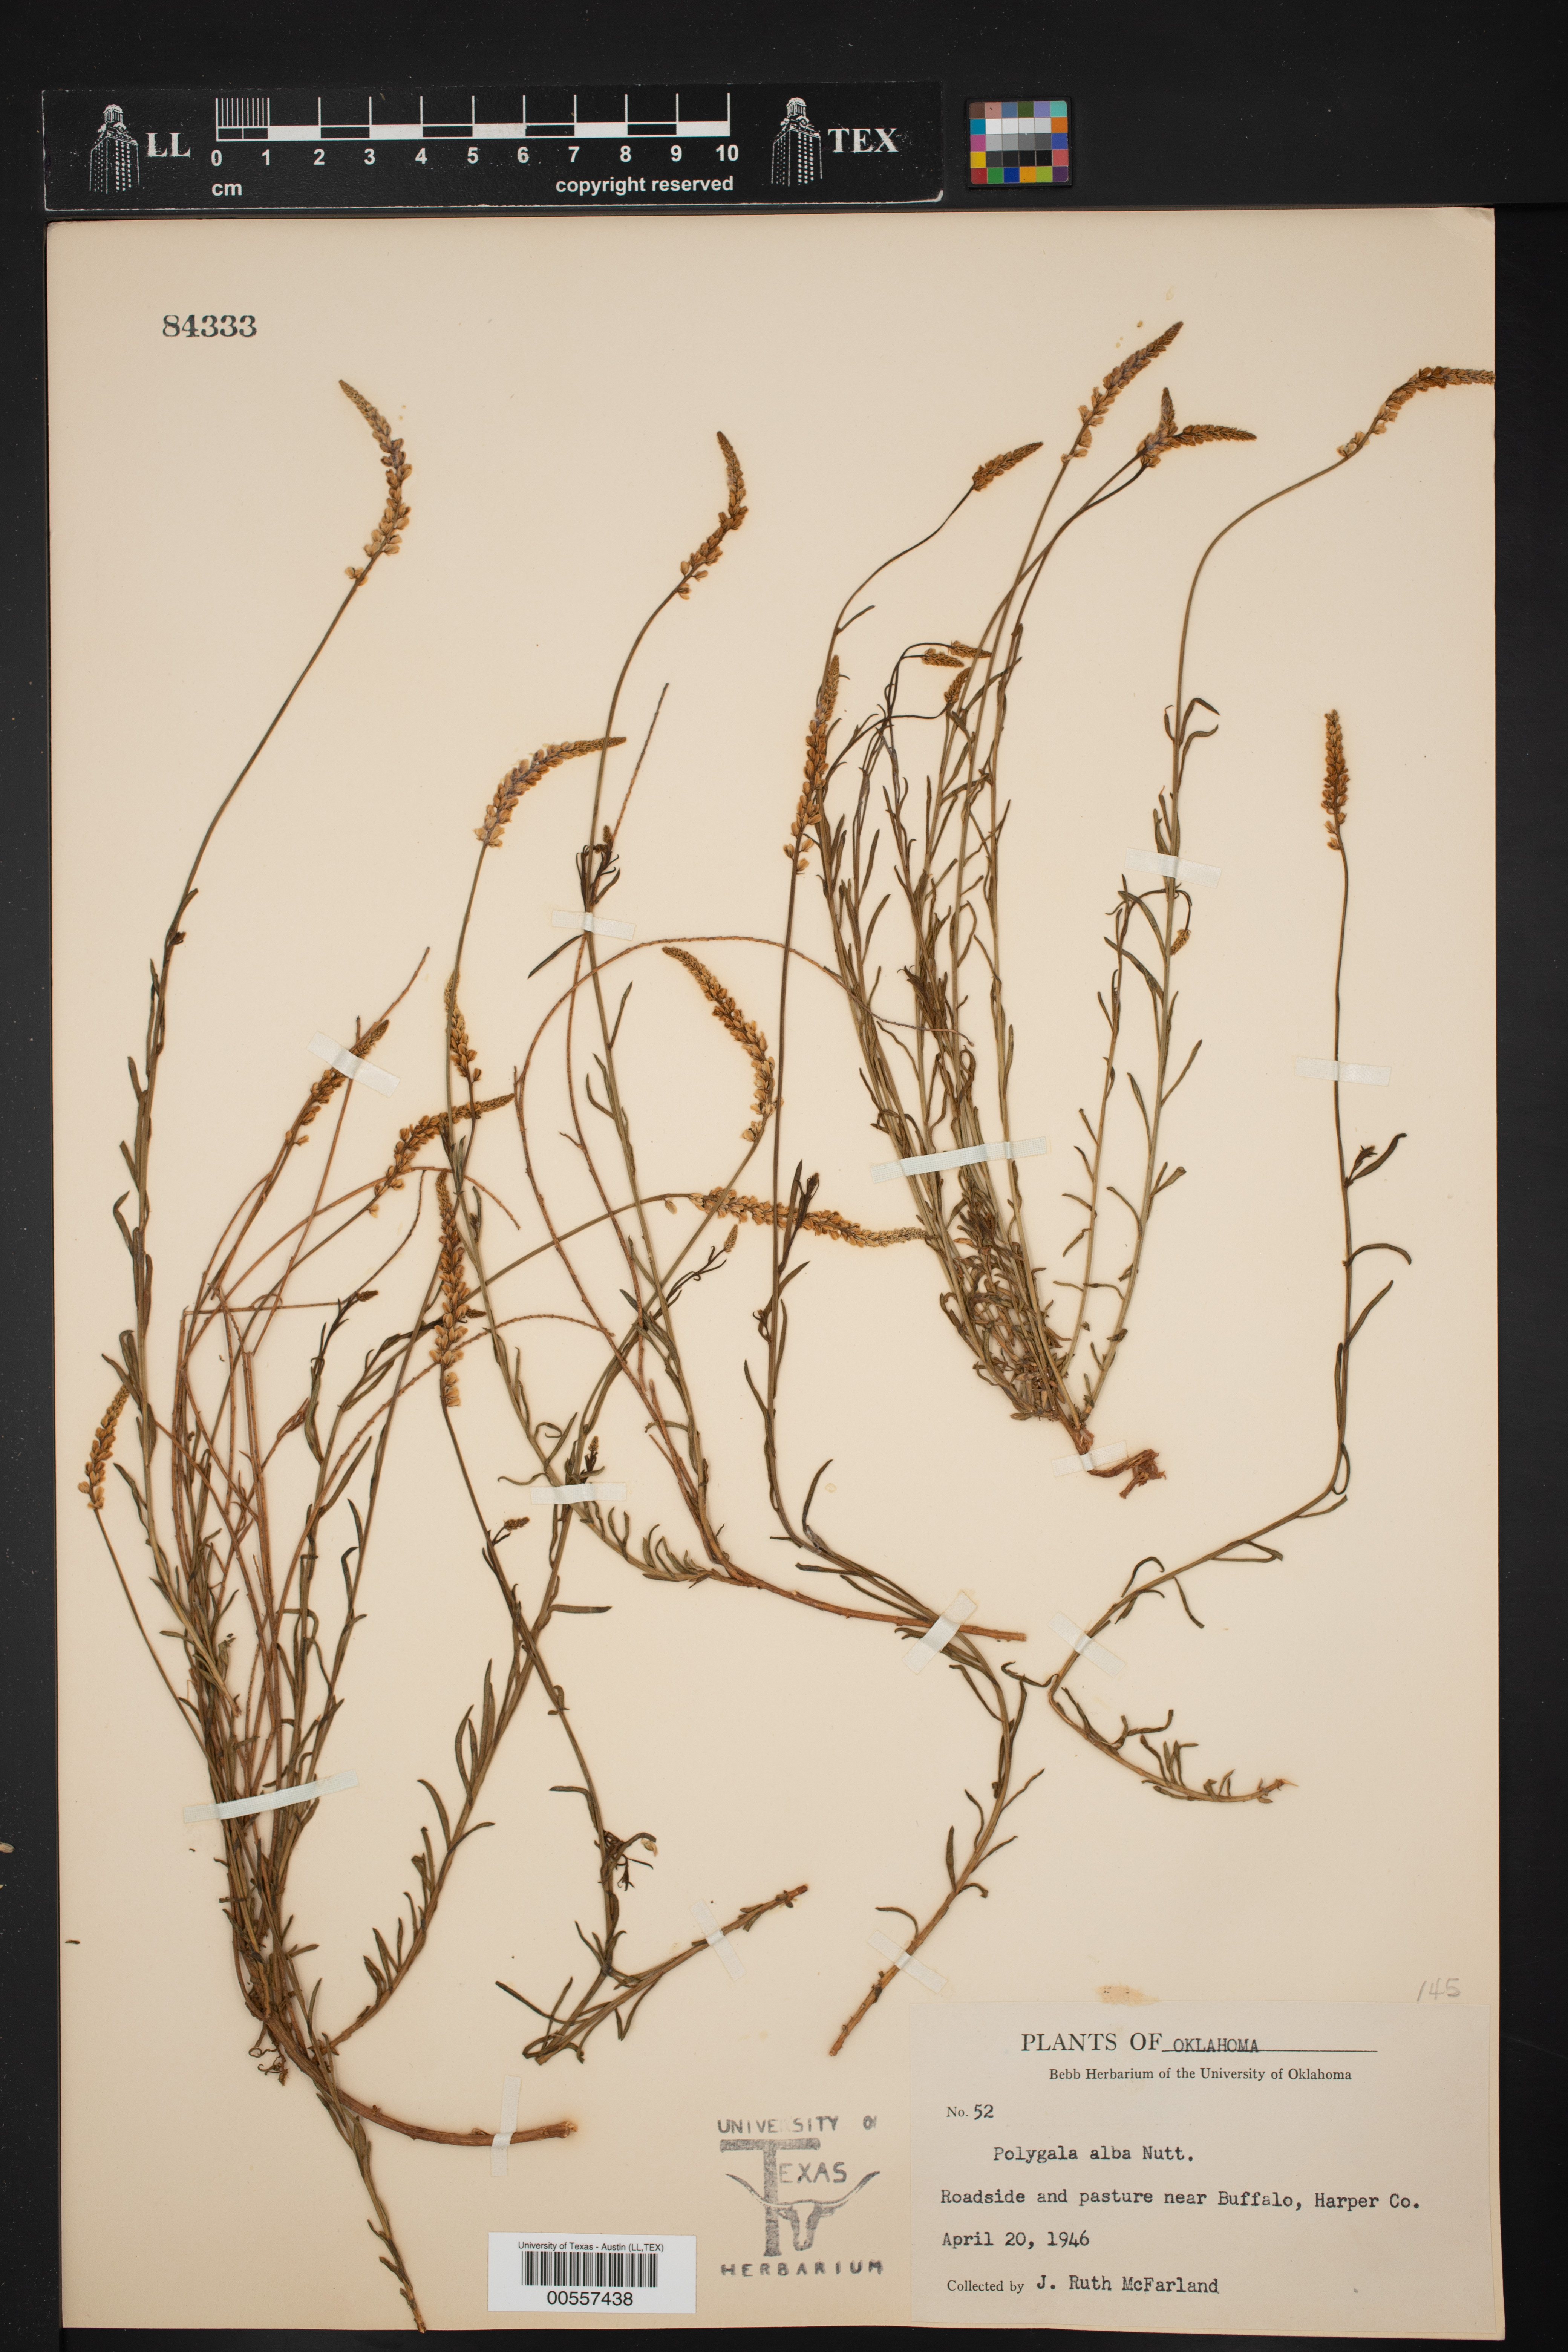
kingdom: Plantae
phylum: Tracheophyta
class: Magnoliopsida
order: Fabales
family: Polygalaceae
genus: Polygala
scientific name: Polygala alba
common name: White milkwort
